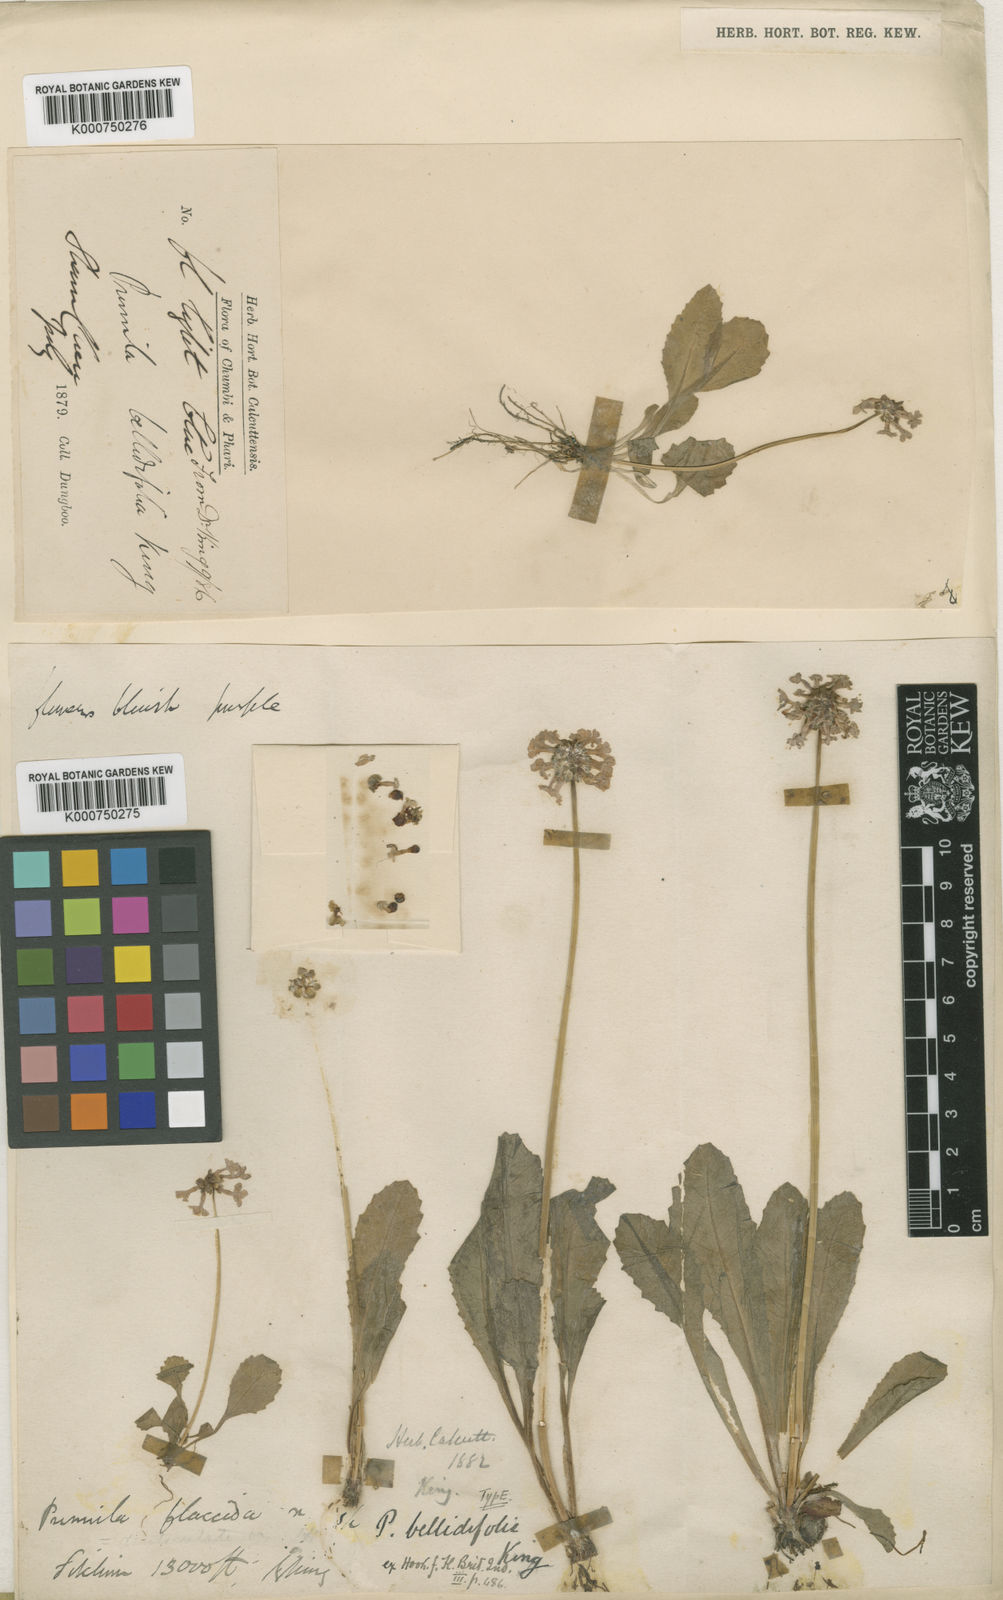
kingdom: Plantae
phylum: Tracheophyta
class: Magnoliopsida
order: Ericales
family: Primulaceae
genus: Primula
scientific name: Primula bellidifolia
